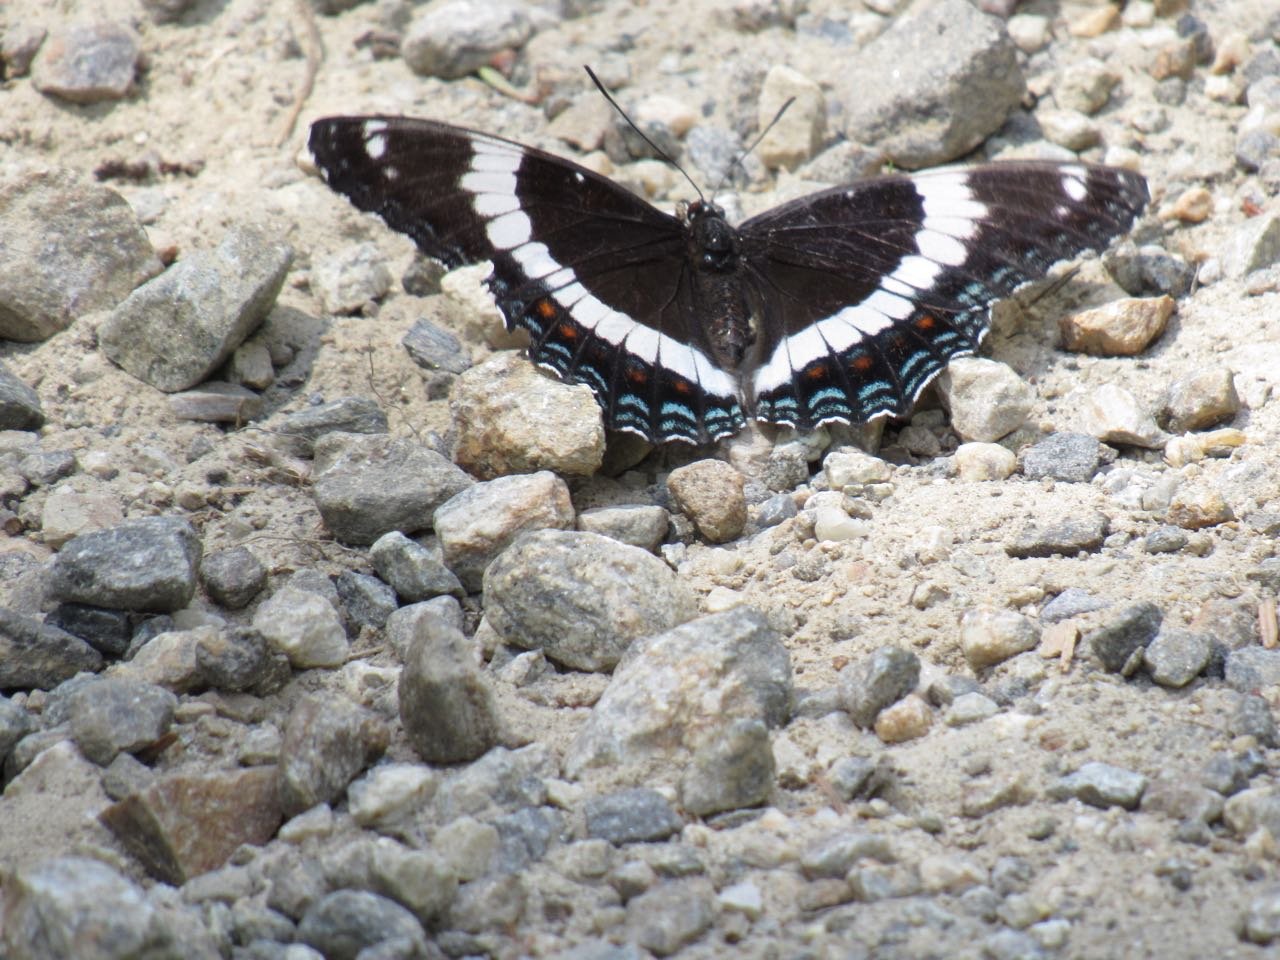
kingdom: Animalia
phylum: Arthropoda
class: Insecta
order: Lepidoptera
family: Nymphalidae
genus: Limenitis
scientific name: Limenitis
